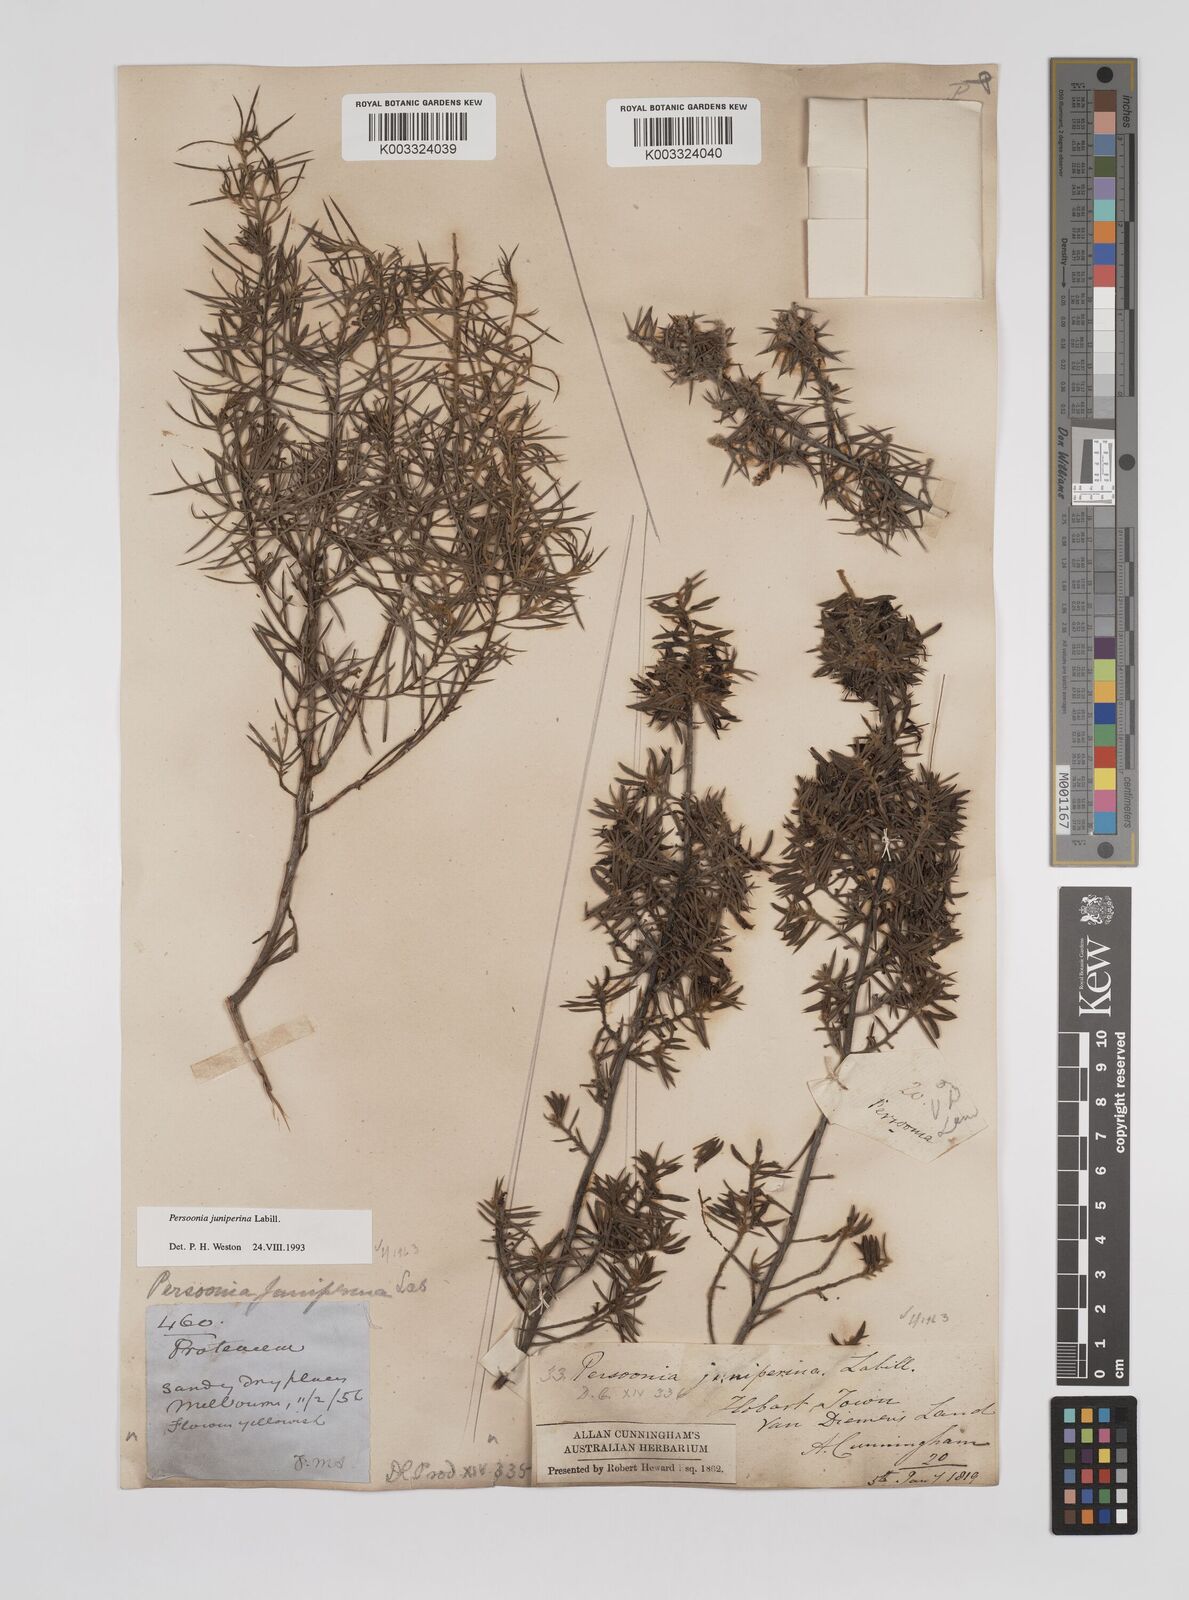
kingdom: Plantae
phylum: Tracheophyta
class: Magnoliopsida
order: Proteales
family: Proteaceae
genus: Persoonia
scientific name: Persoonia juniperina
